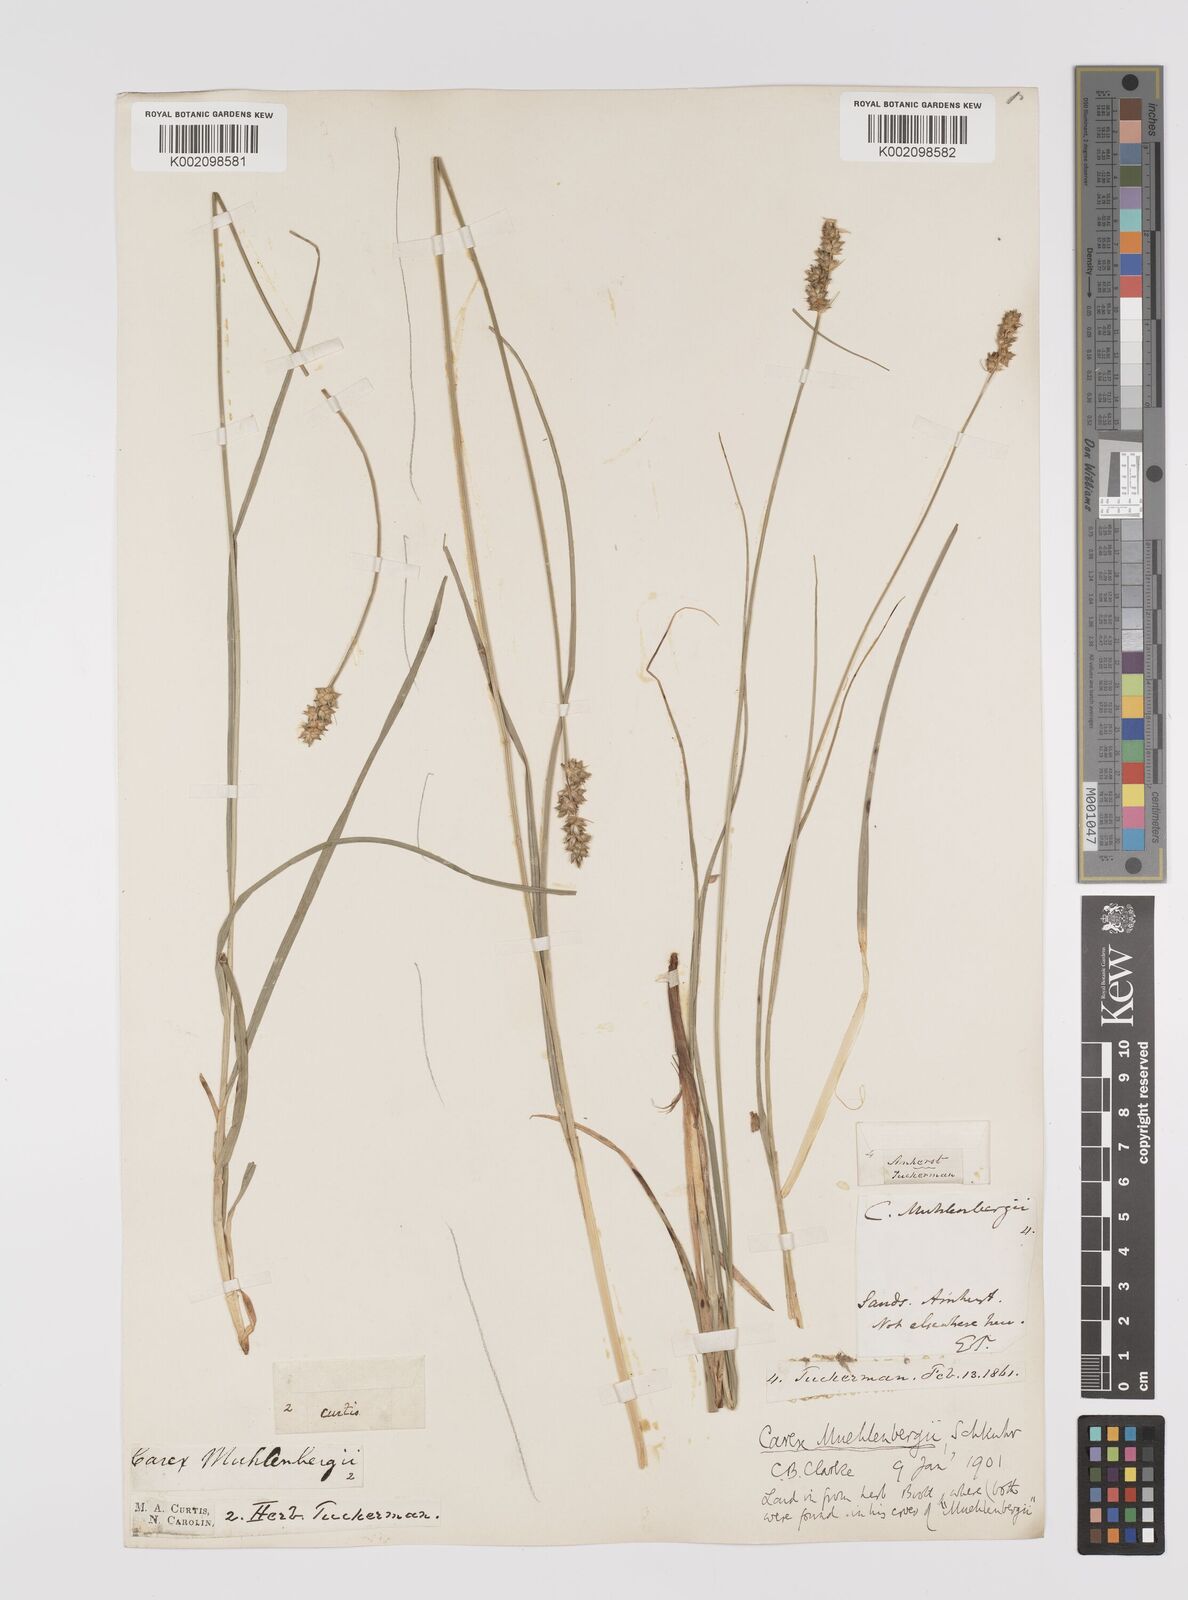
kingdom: Plantae
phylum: Tracheophyta
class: Liliopsida
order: Poales
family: Cyperaceae
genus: Carex
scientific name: Carex vulpinoidea
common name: American fox-sedge
